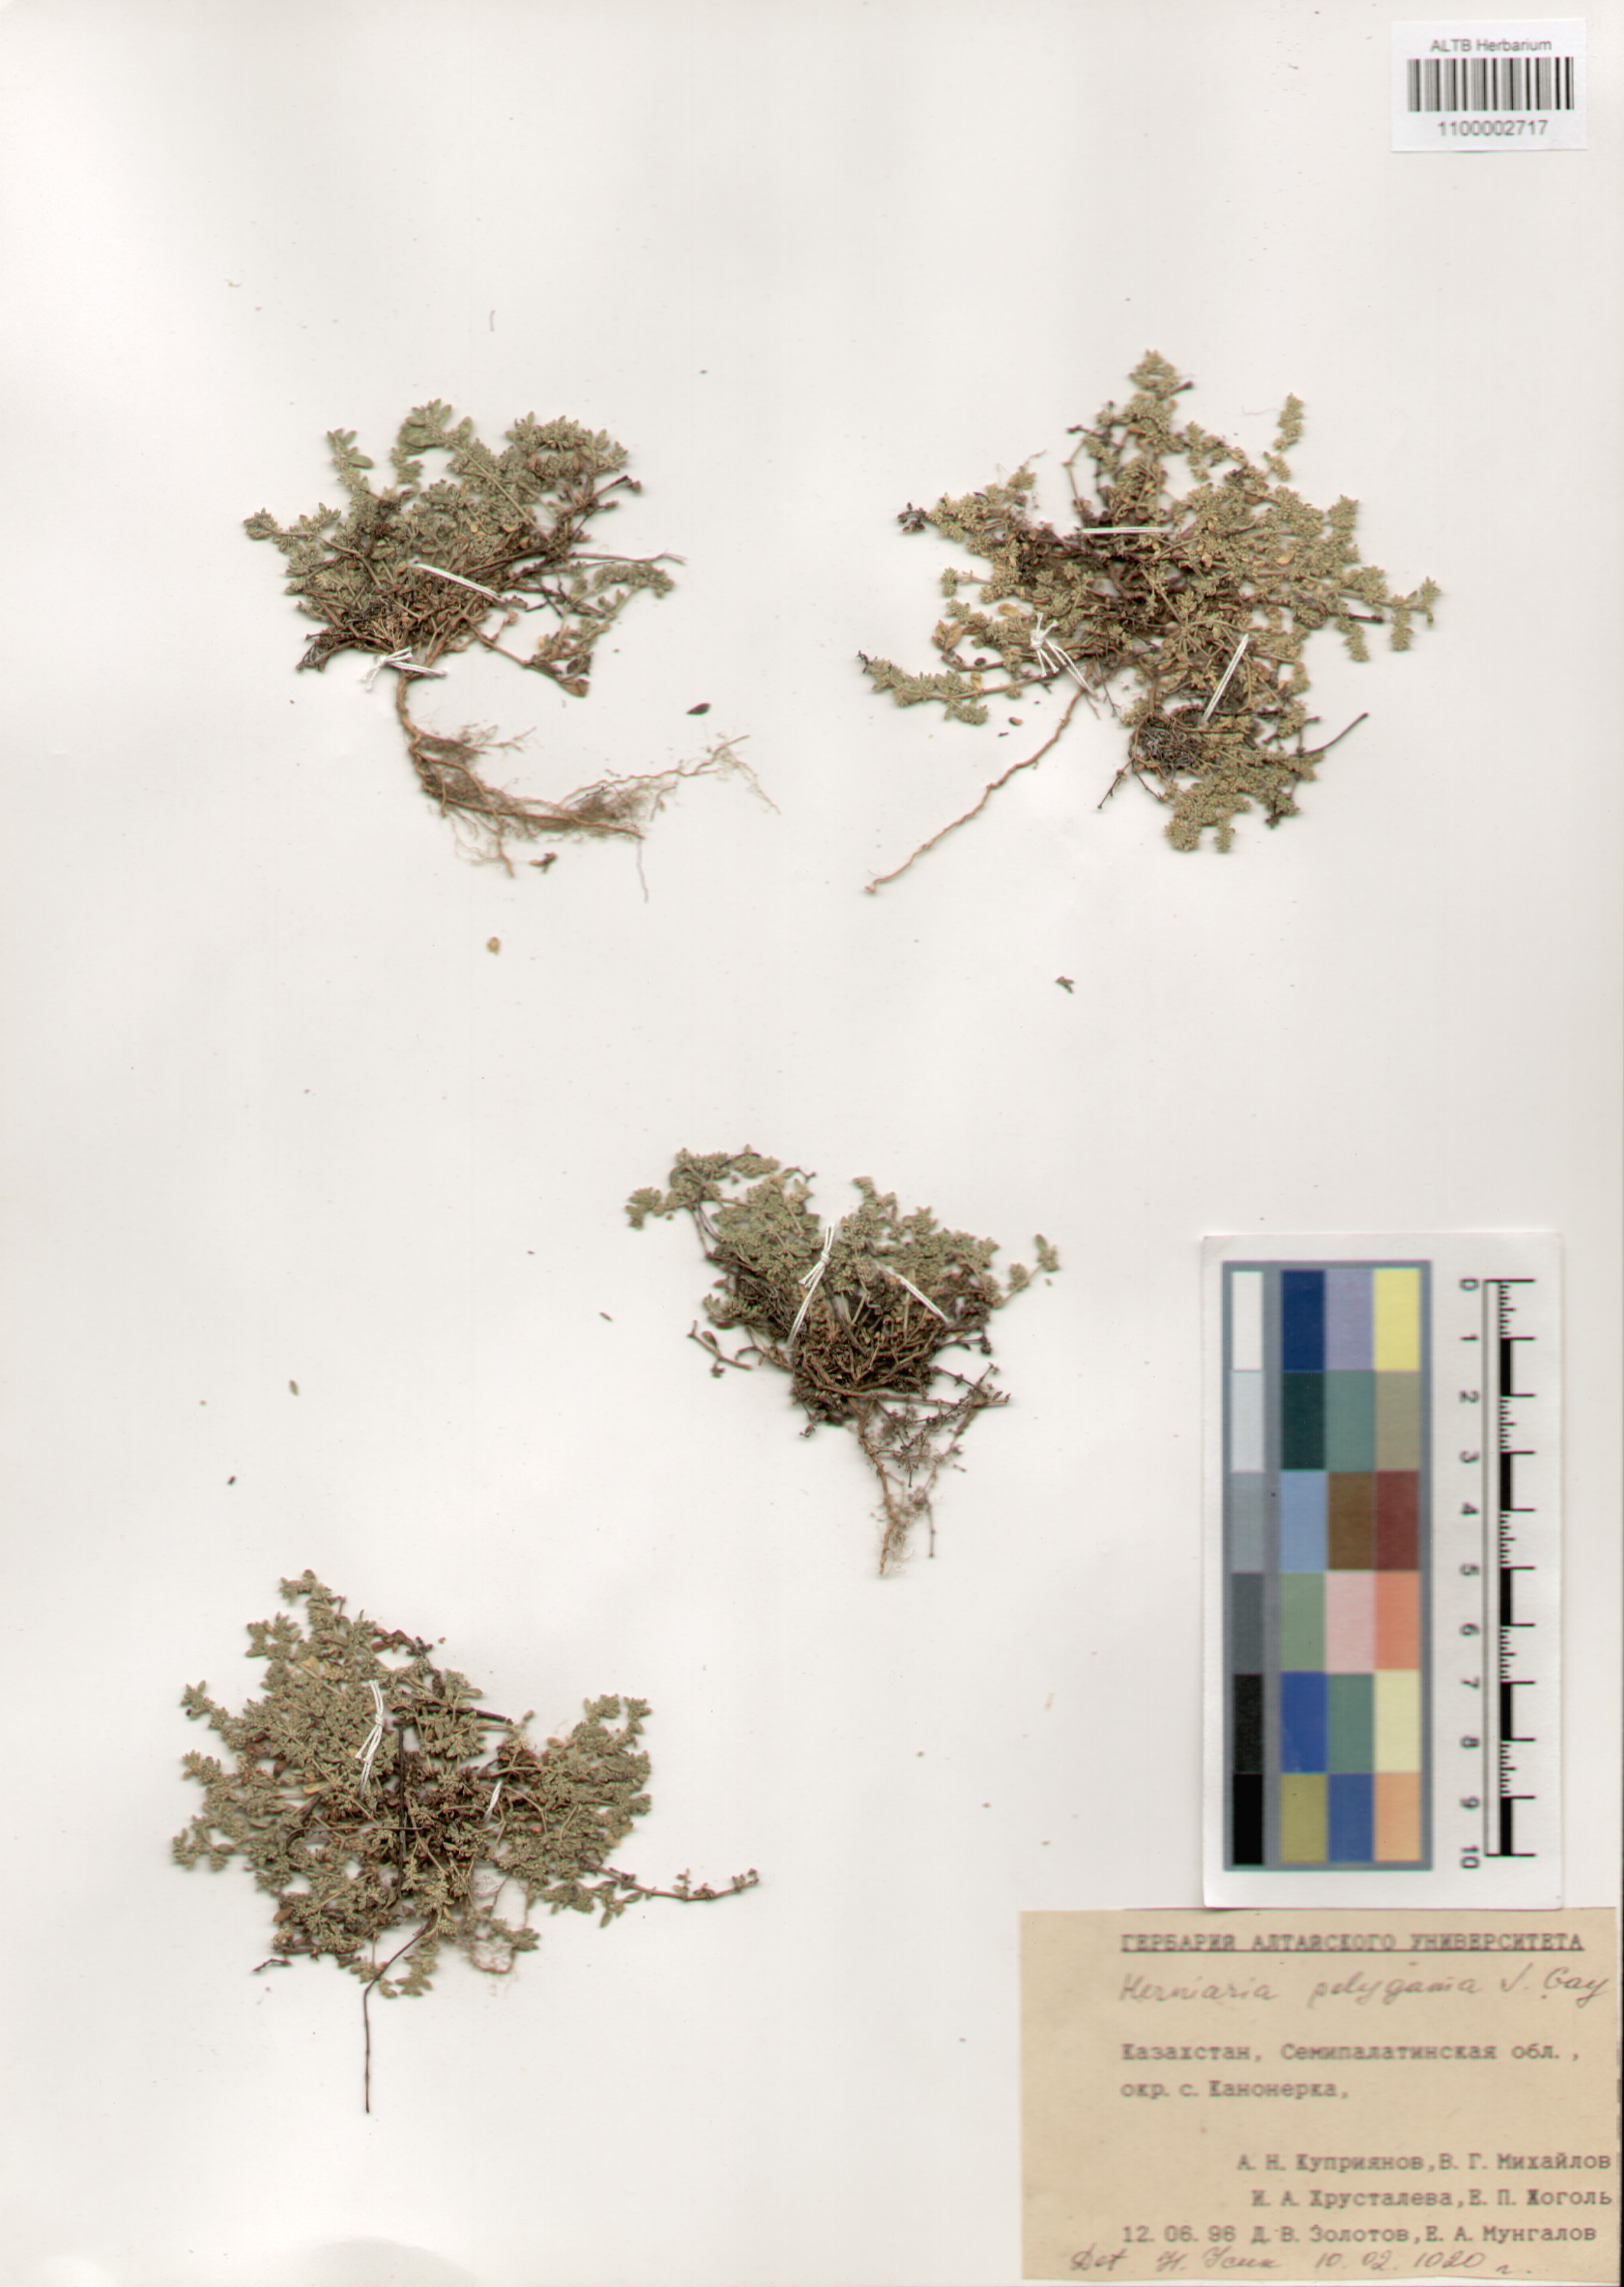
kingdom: Plantae
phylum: Tracheophyta
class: Magnoliopsida
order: Caryophyllales
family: Caryophyllaceae
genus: Herniaria
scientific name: Herniaria polygama
